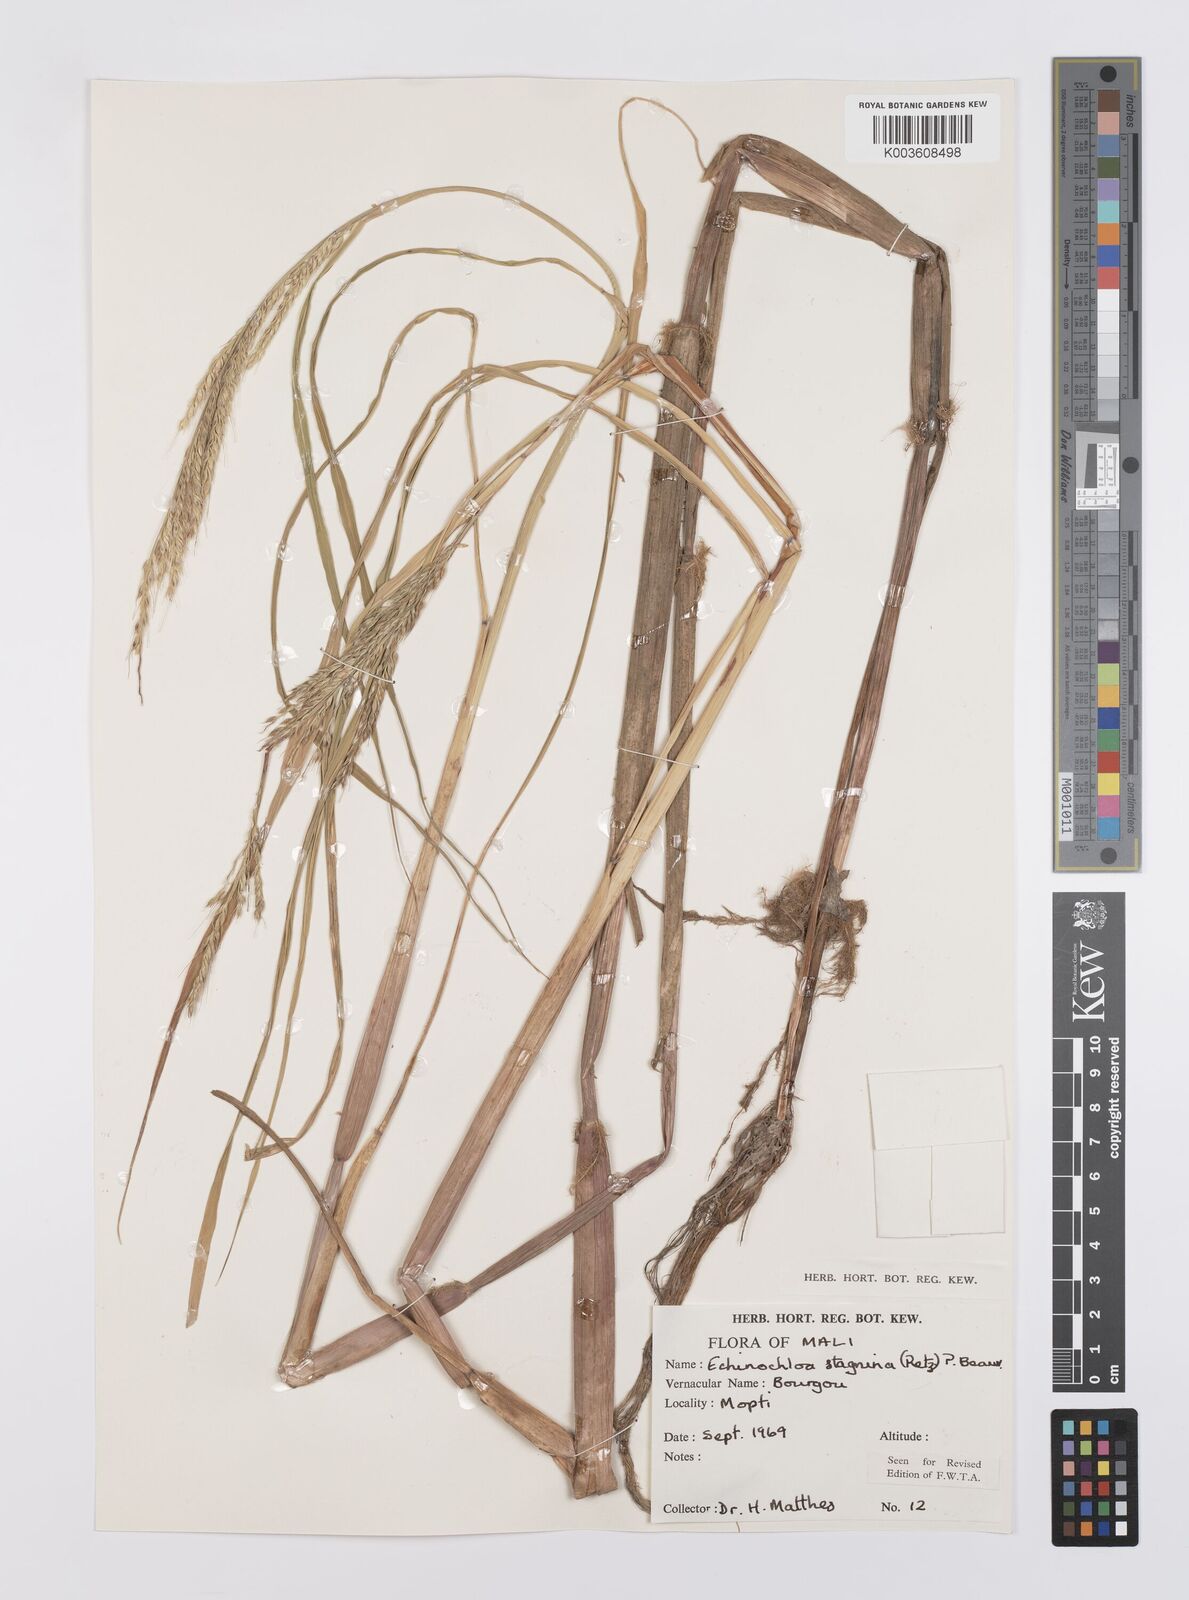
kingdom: Plantae
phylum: Tracheophyta
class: Liliopsida
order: Poales
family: Poaceae
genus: Echinochloa
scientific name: Echinochloa stagnina
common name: Burgu grass
